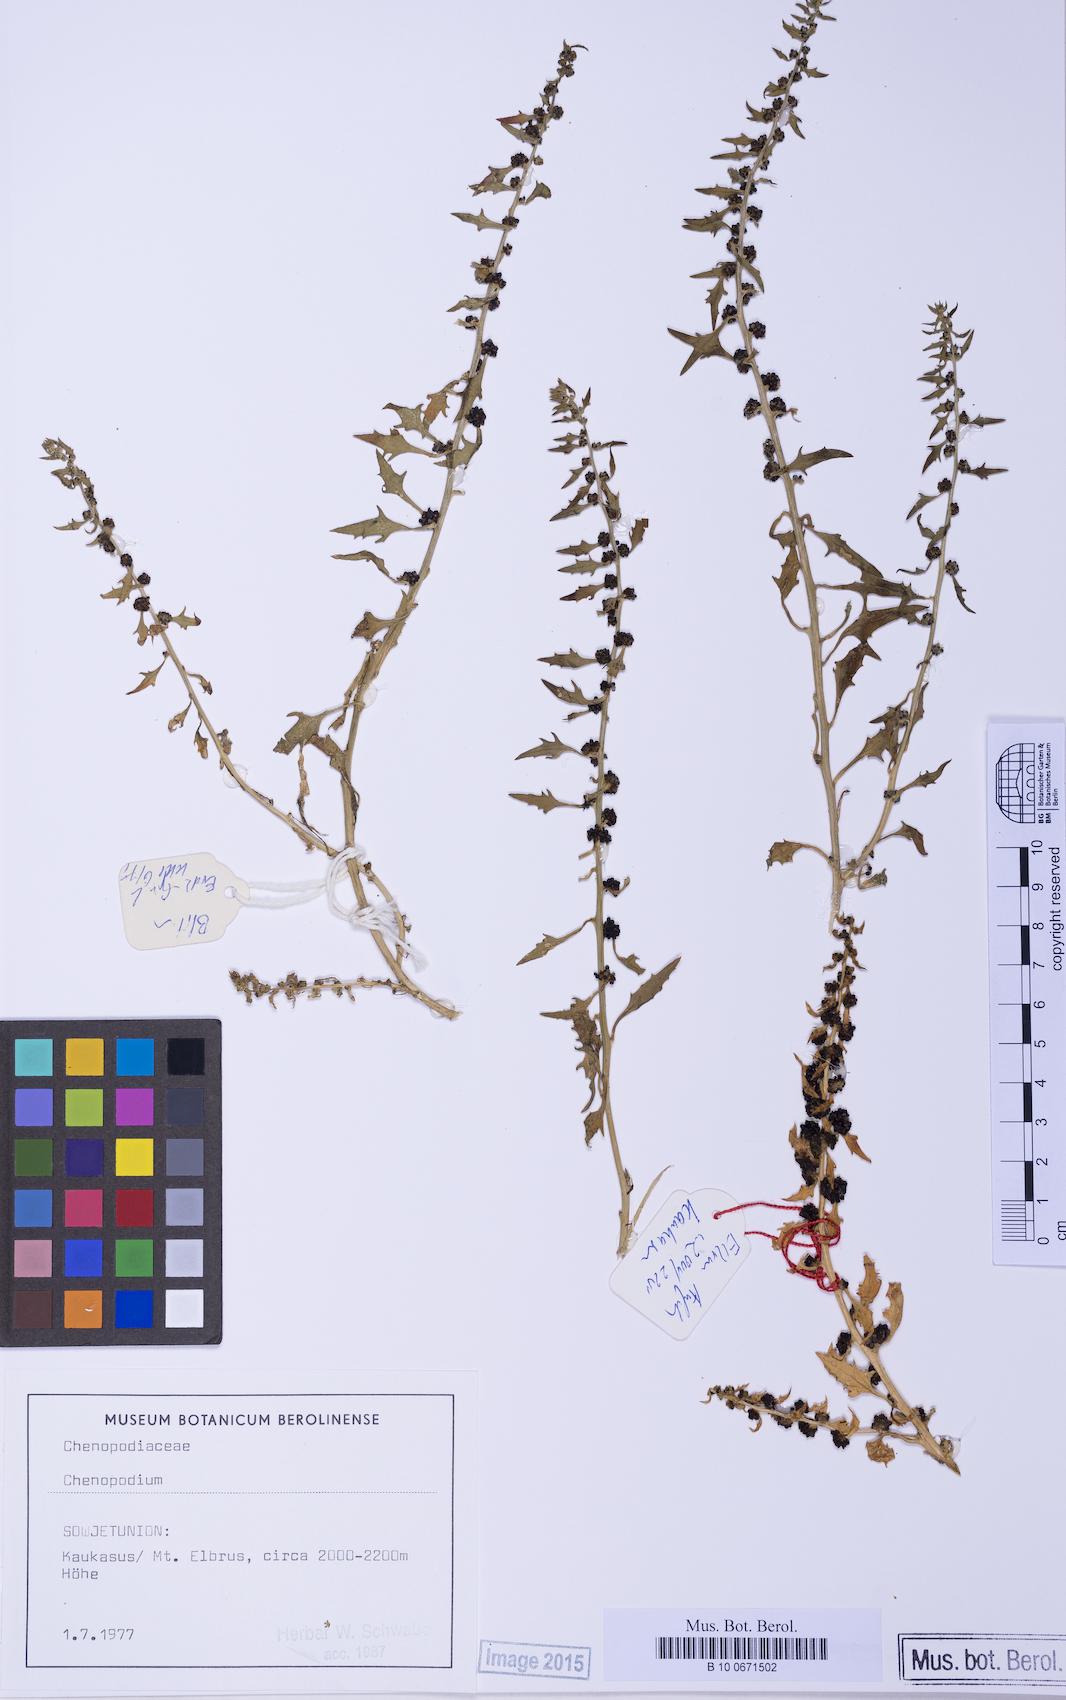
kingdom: Plantae
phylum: Tracheophyta
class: Magnoliopsida
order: Caryophyllales
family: Amaranthaceae
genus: Blitum
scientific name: Blitum virgatum
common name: Strawberry goosefoot
